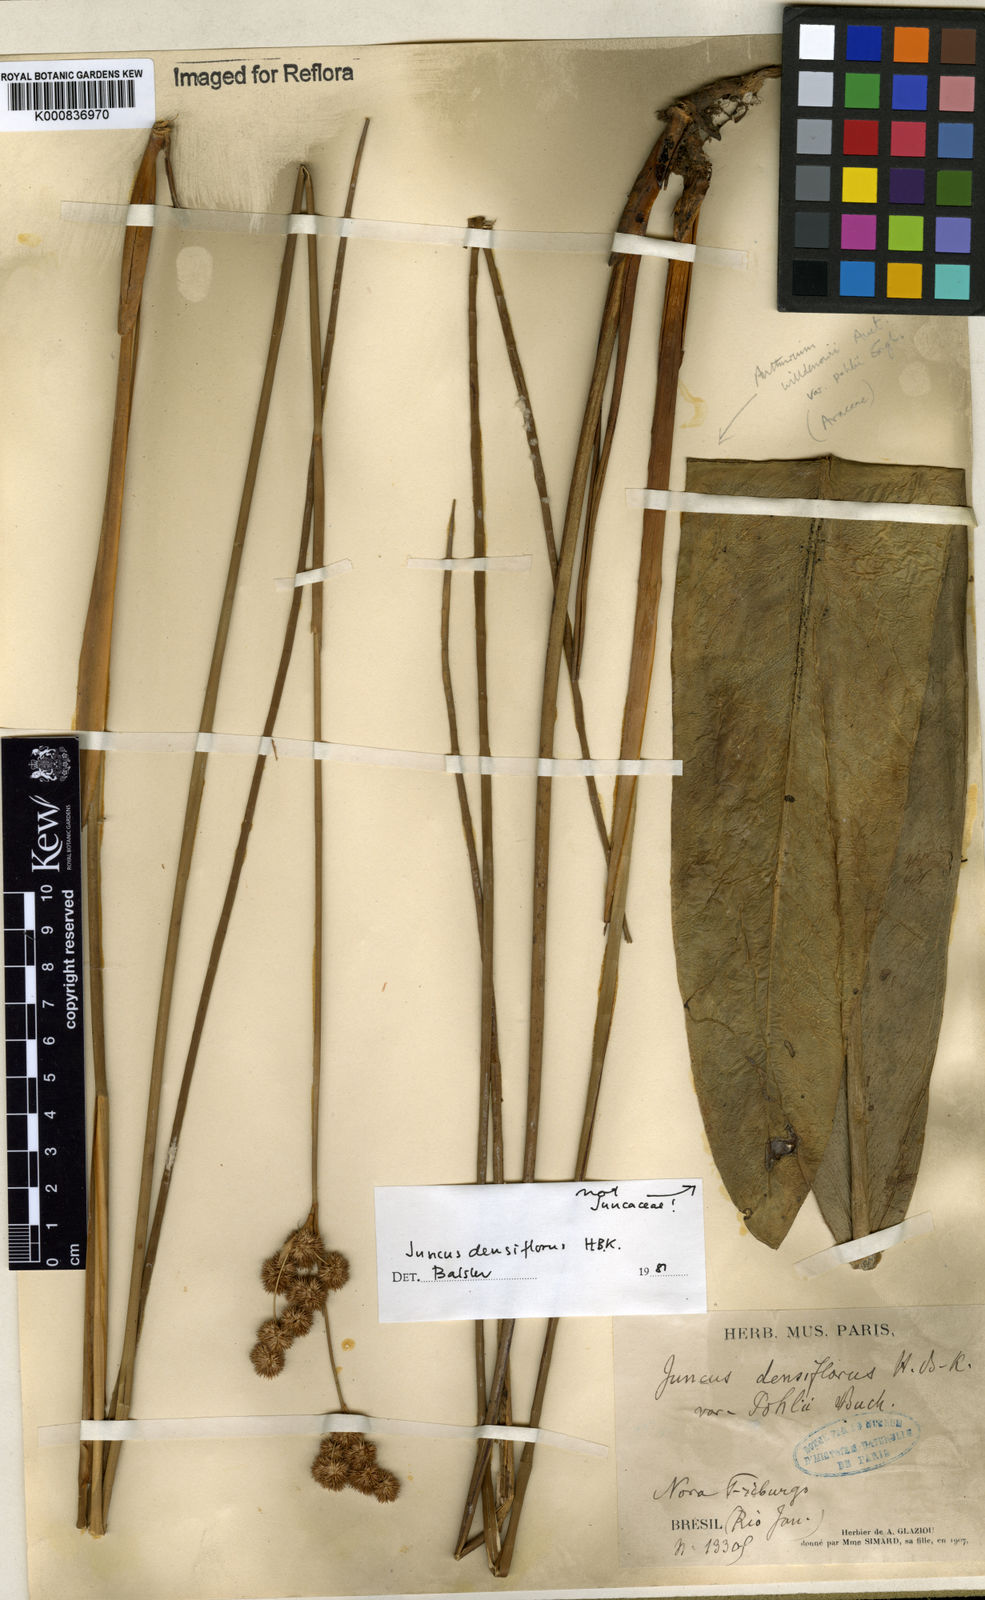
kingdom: Plantae
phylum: Tracheophyta
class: Liliopsida
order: Poales
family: Juncaceae
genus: Juncus
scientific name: Juncus densiflorus
